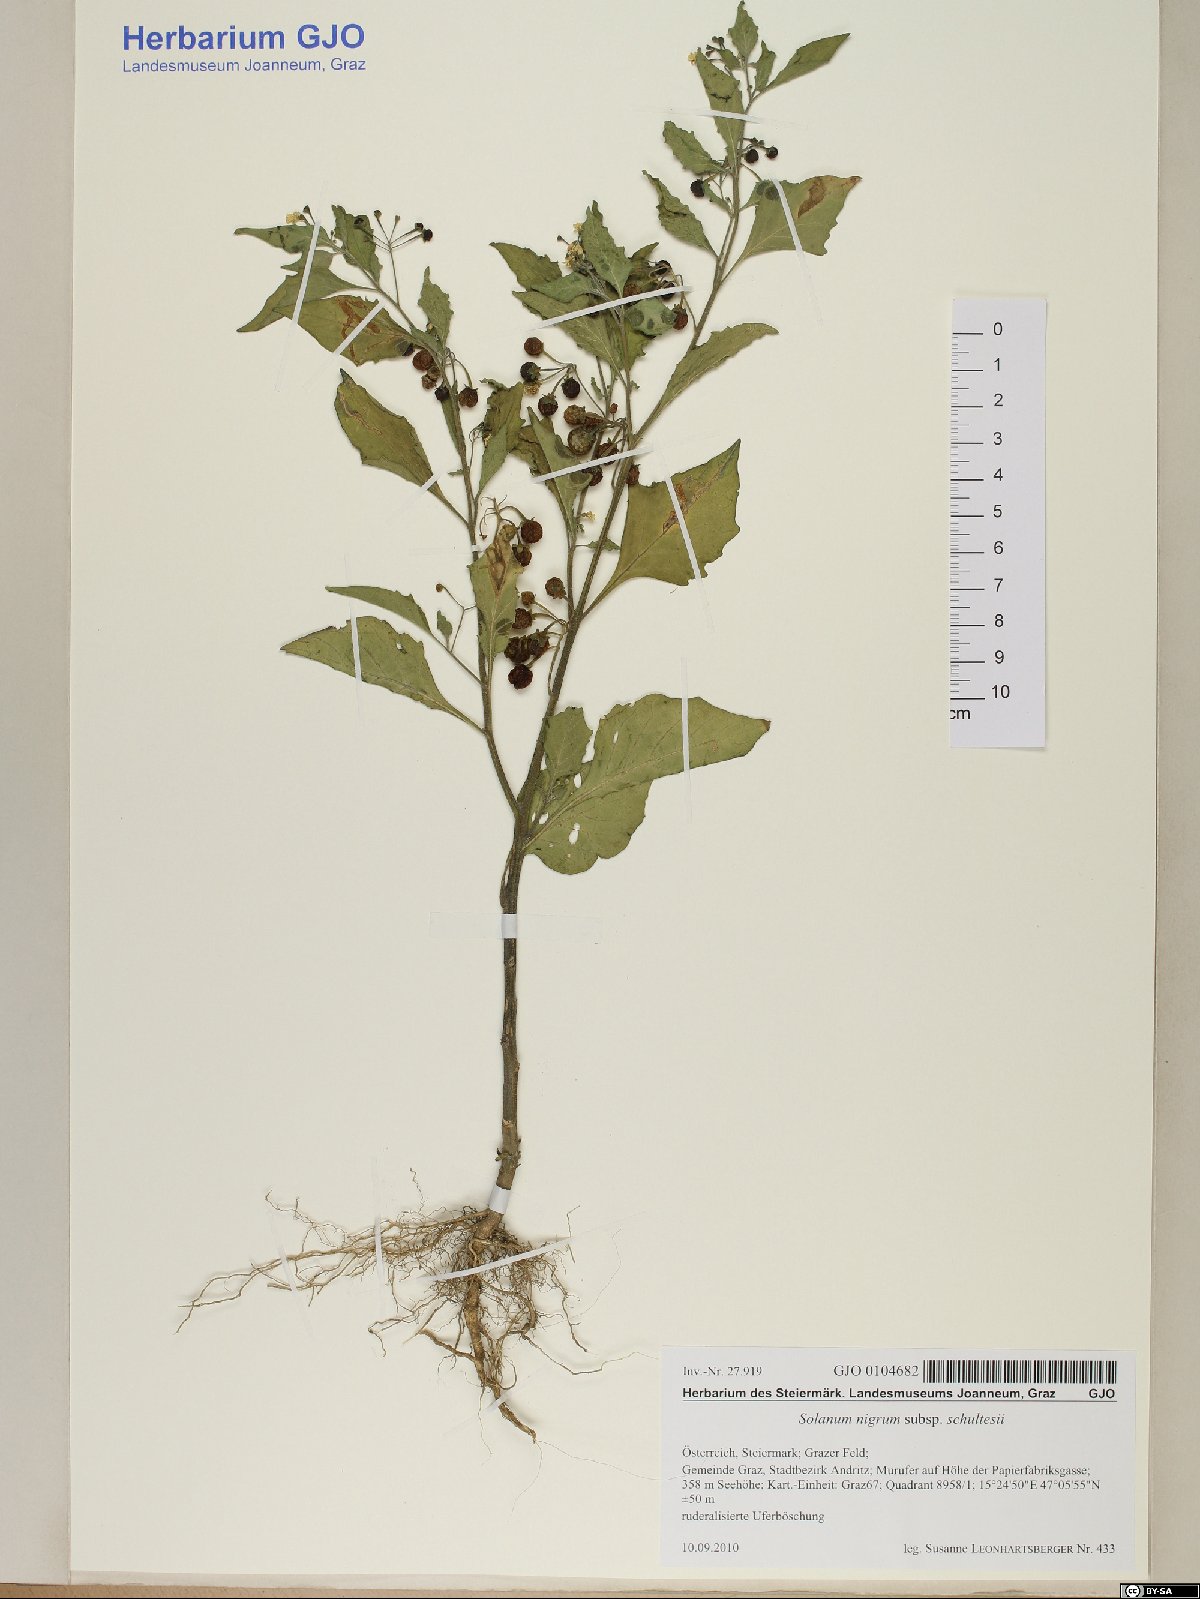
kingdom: Plantae
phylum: Tracheophyta
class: Magnoliopsida
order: Solanales
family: Solanaceae
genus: Solanum
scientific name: Solanum decipiens
